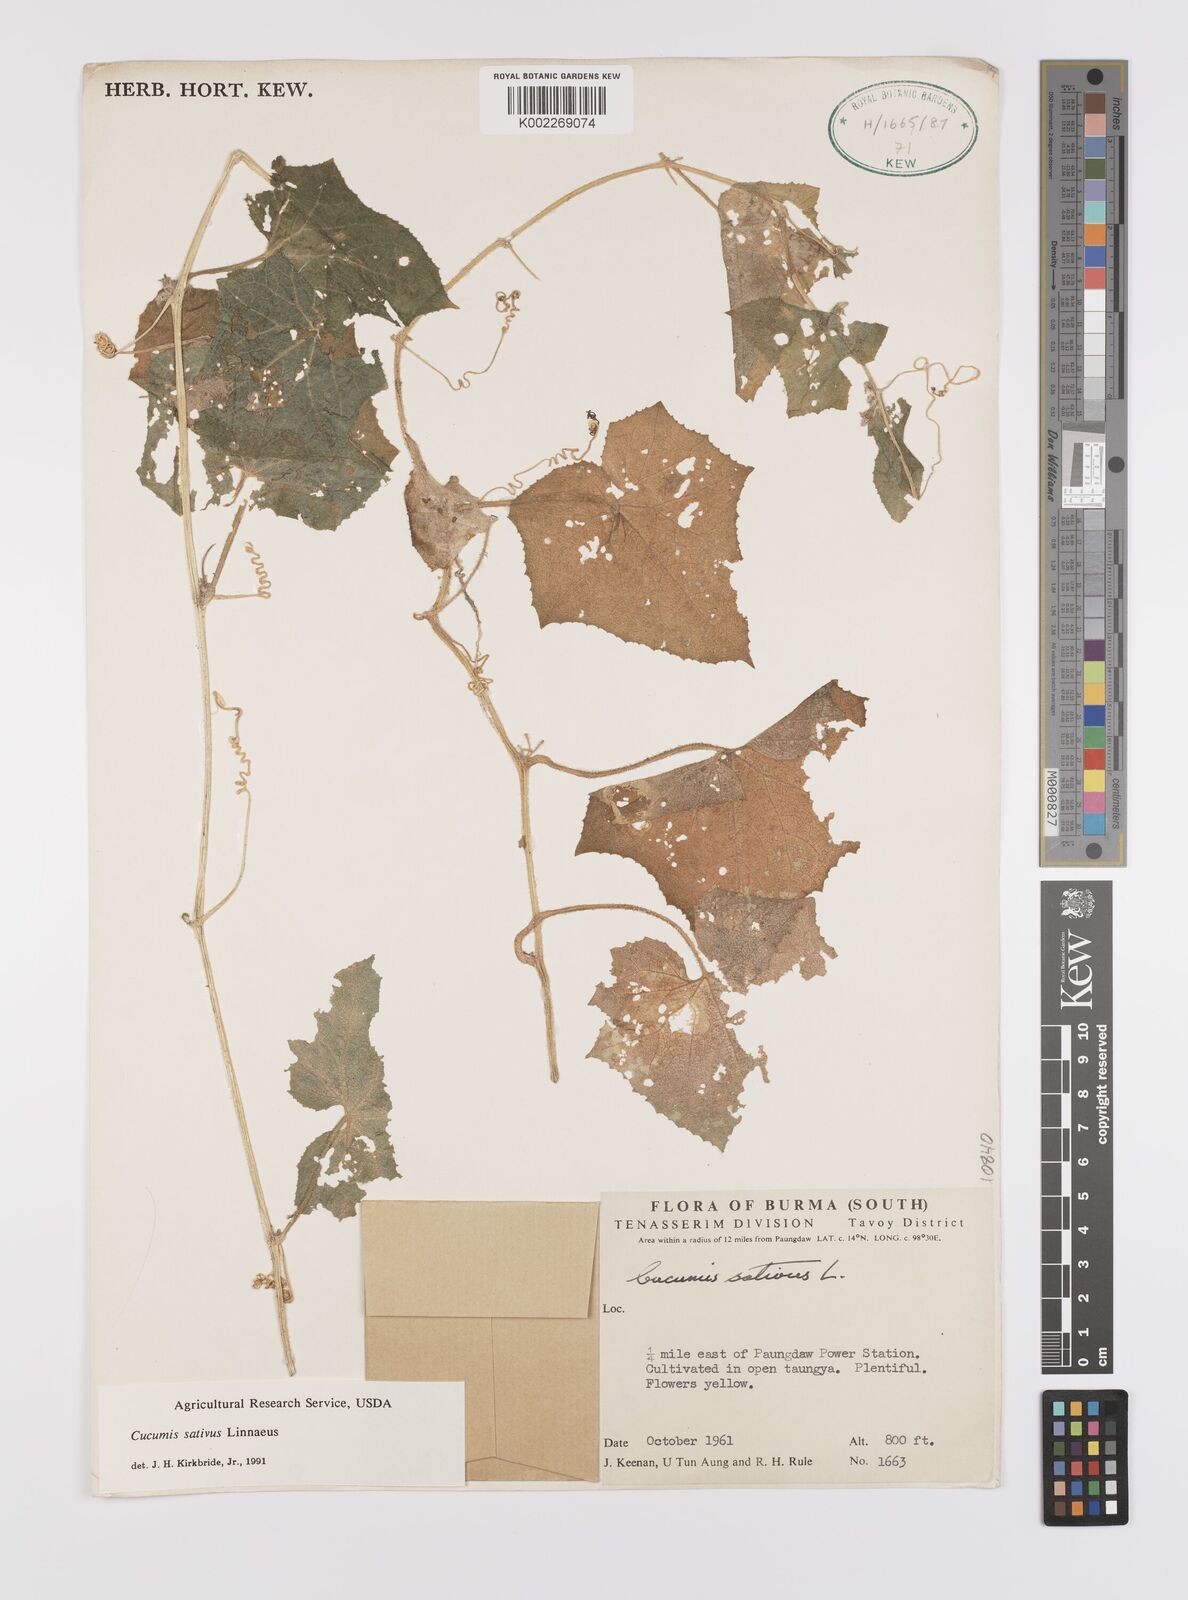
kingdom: Plantae
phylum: Tracheophyta
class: Magnoliopsida
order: Cucurbitales
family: Cucurbitaceae
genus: Cucumis
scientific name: Cucumis sativus
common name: Cucumber
